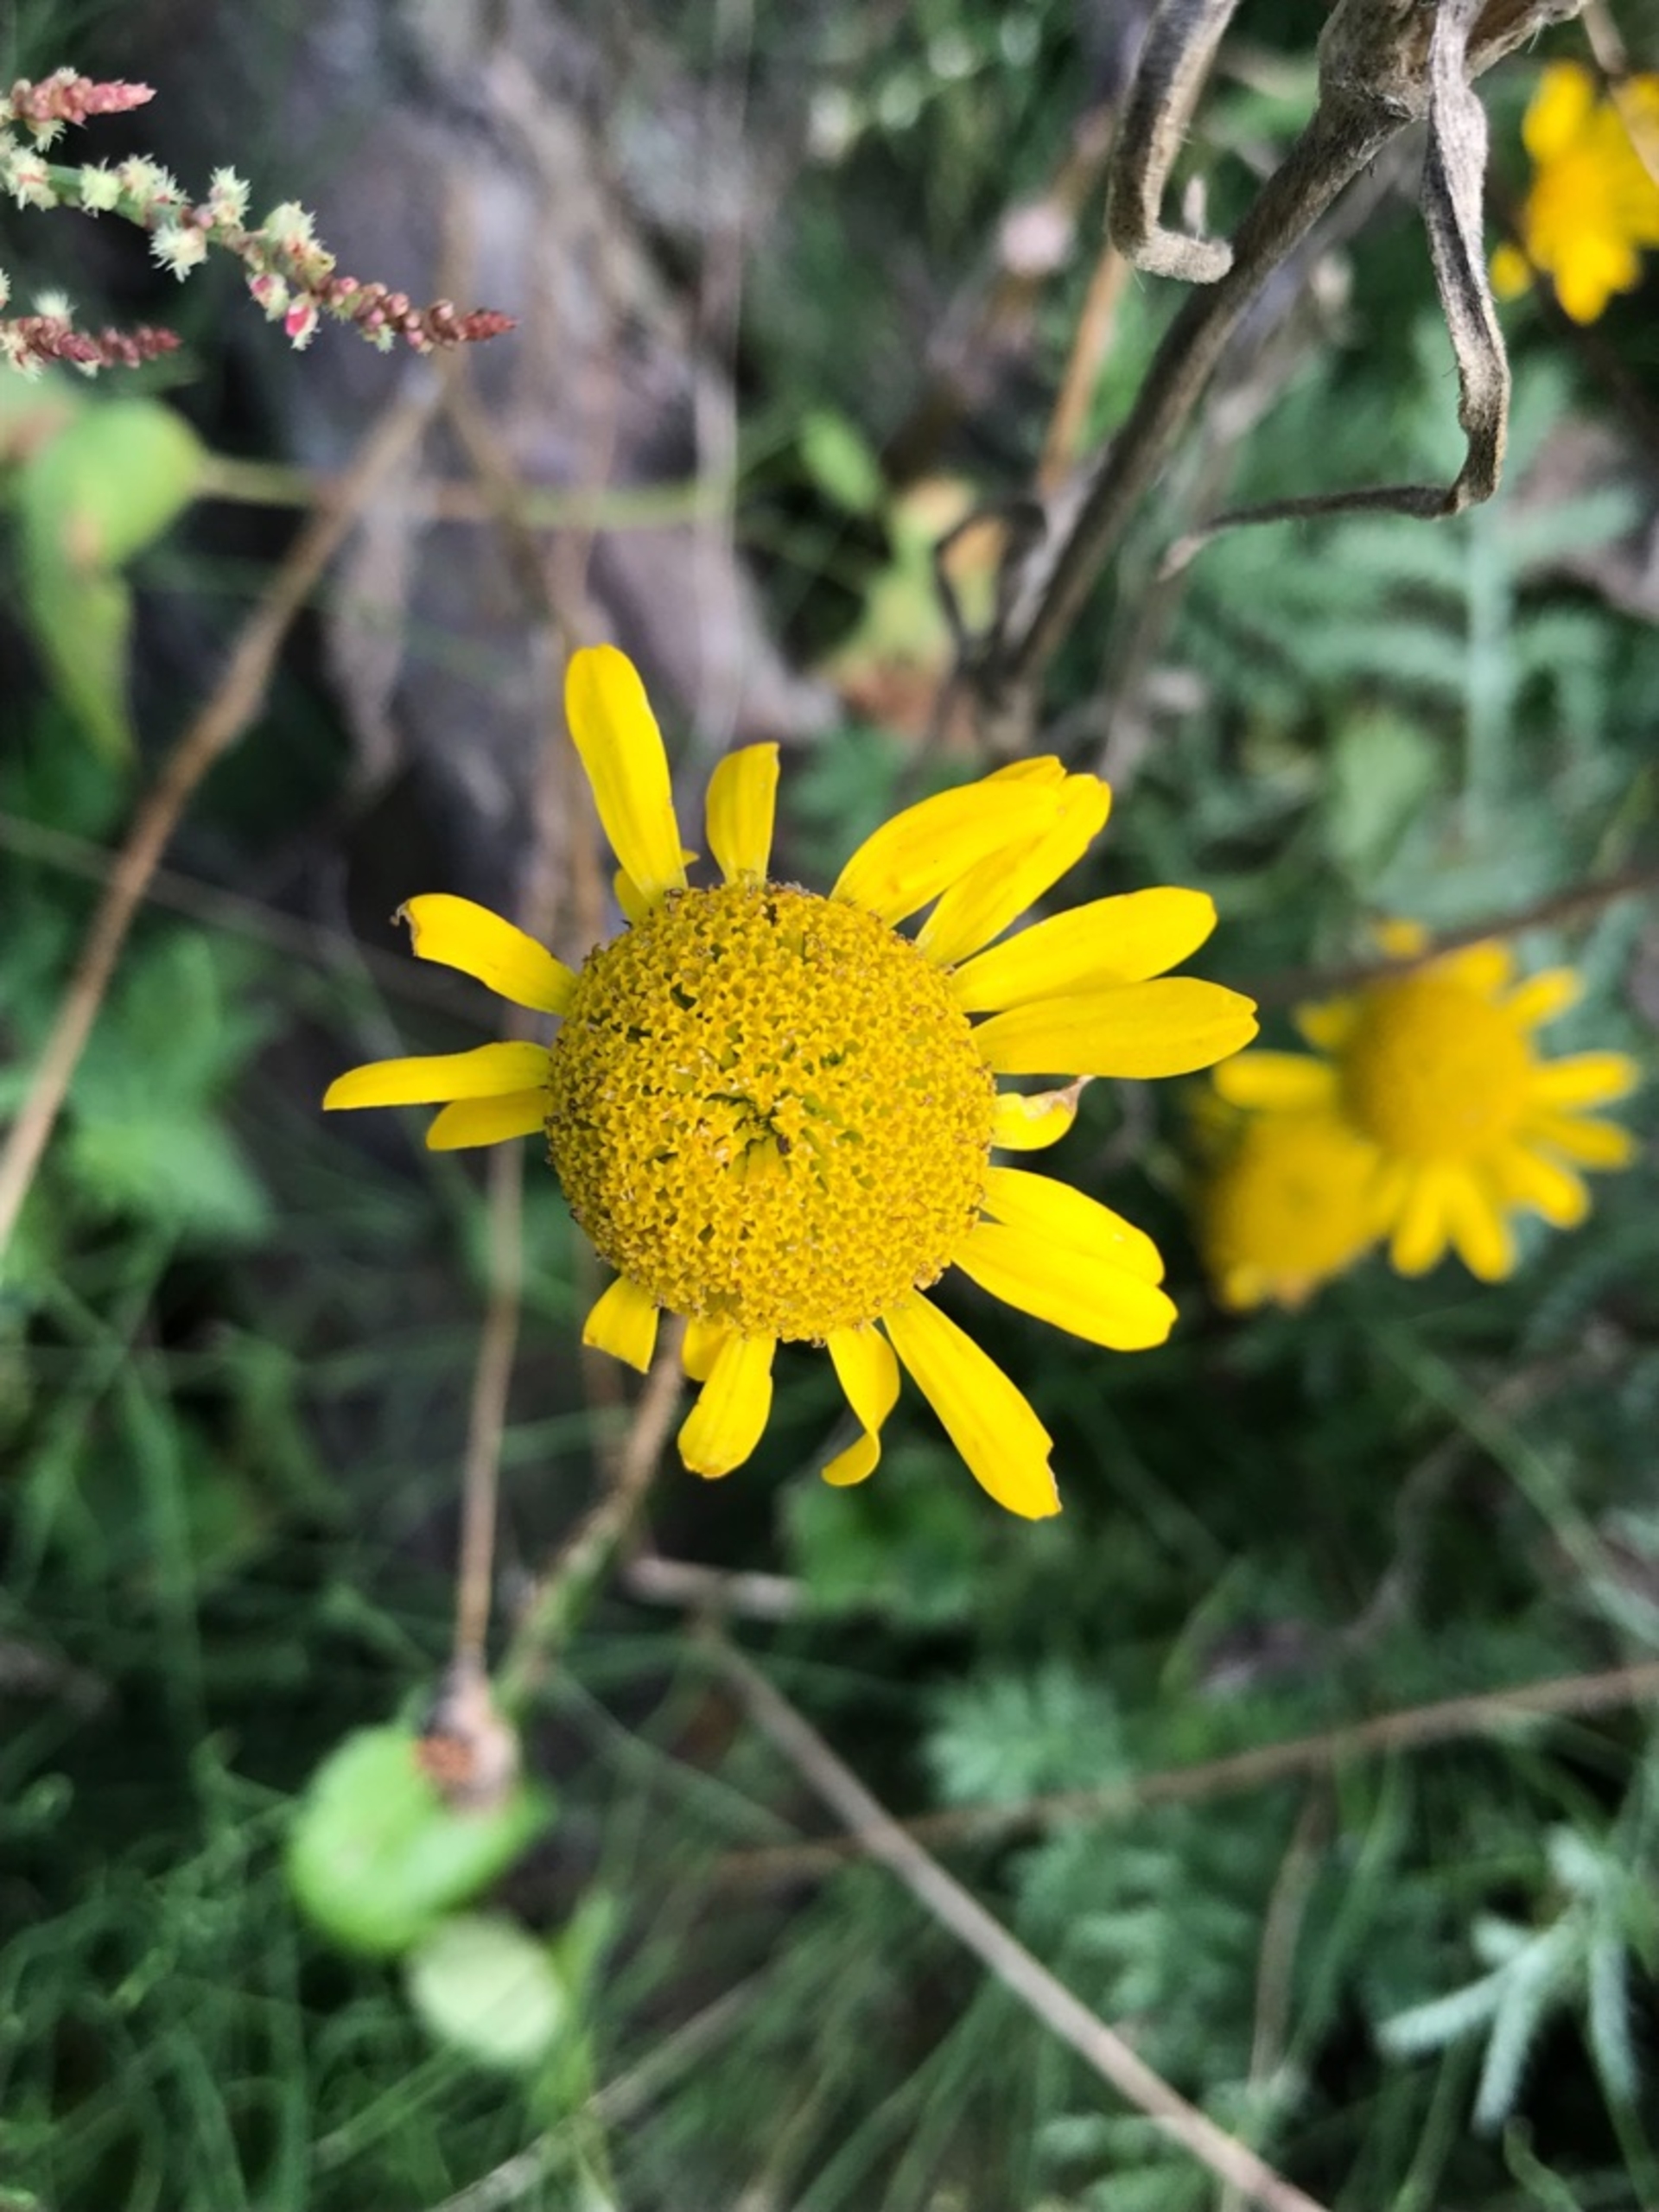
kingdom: Plantae
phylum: Tracheophyta
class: Magnoliopsida
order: Asterales
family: Asteraceae
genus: Cota
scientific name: Cota tinctoria
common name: Farve-gåseurt
